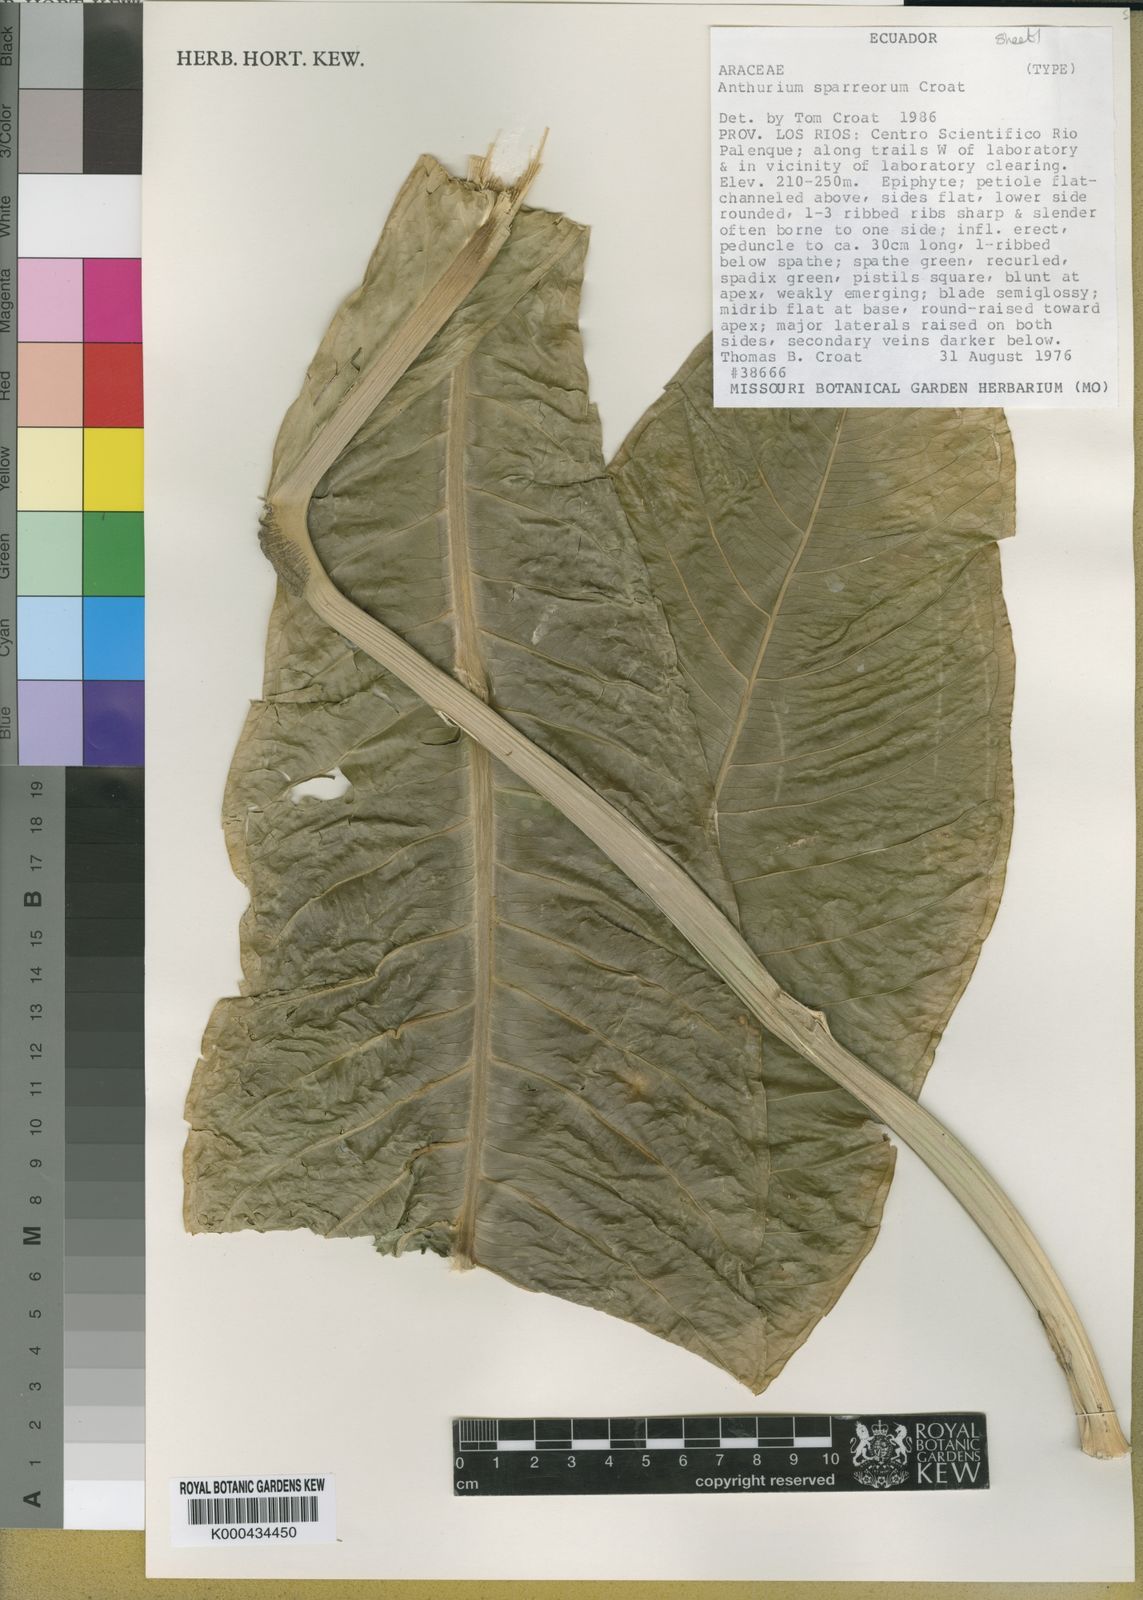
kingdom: Plantae
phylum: Tracheophyta
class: Liliopsida
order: Alismatales
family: Araceae
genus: Anthurium
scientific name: Anthurium sparreorum
